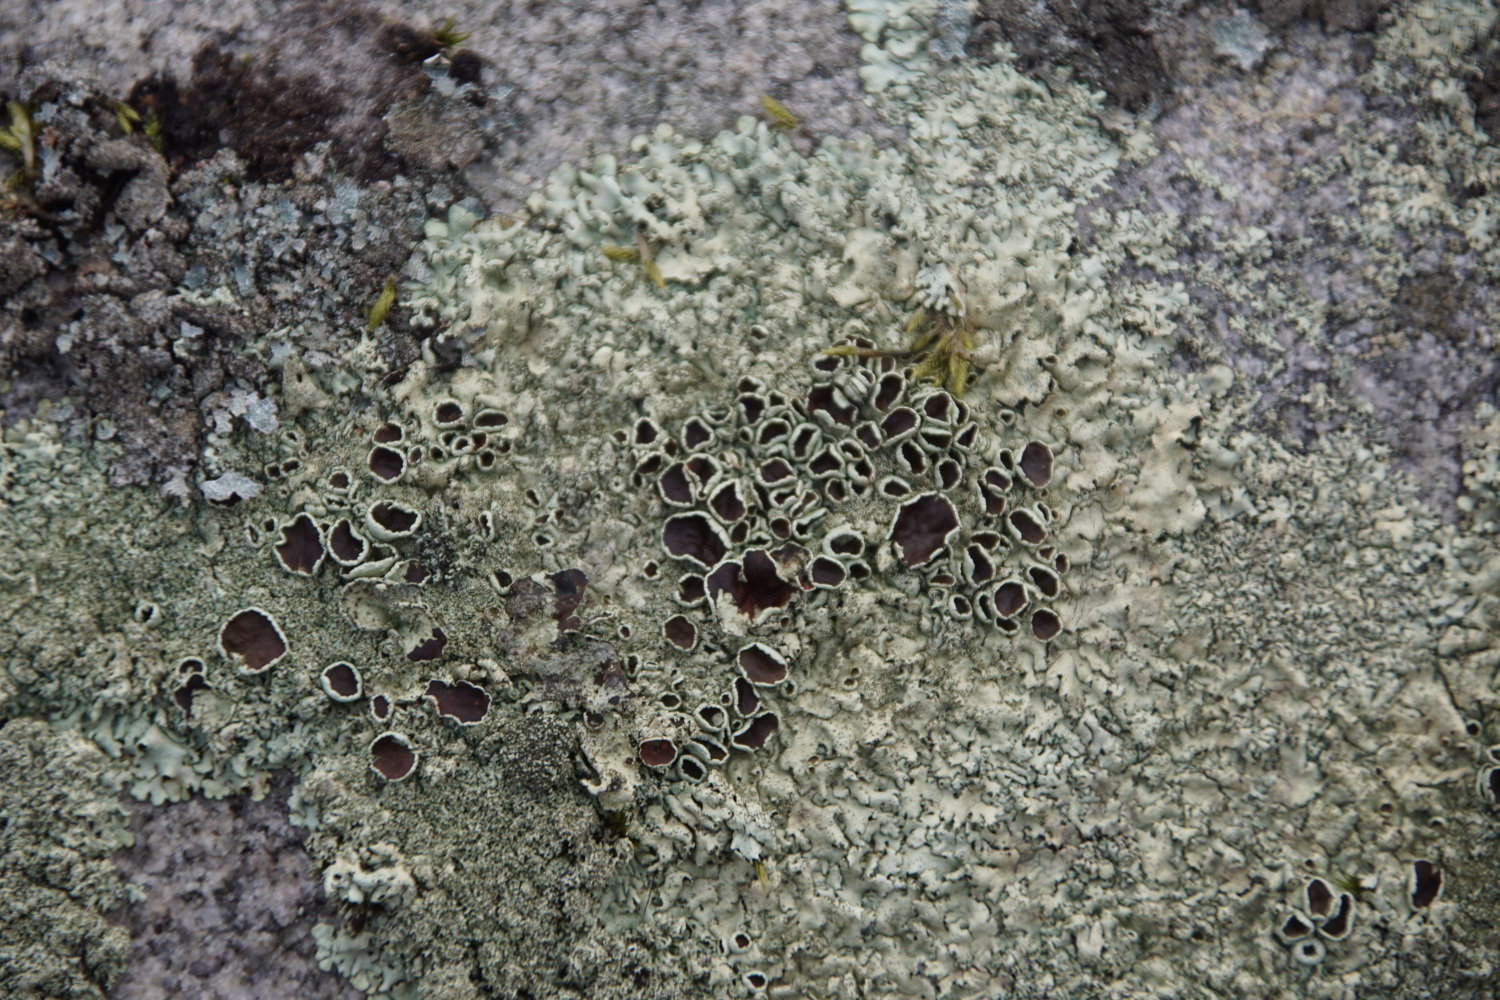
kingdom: Fungi
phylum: Ascomycota
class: Lecanoromycetes
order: Lecanorales
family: Parmeliaceae
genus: Xanthoparmelia
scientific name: Xanthoparmelia conspersa
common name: messing-skållav
